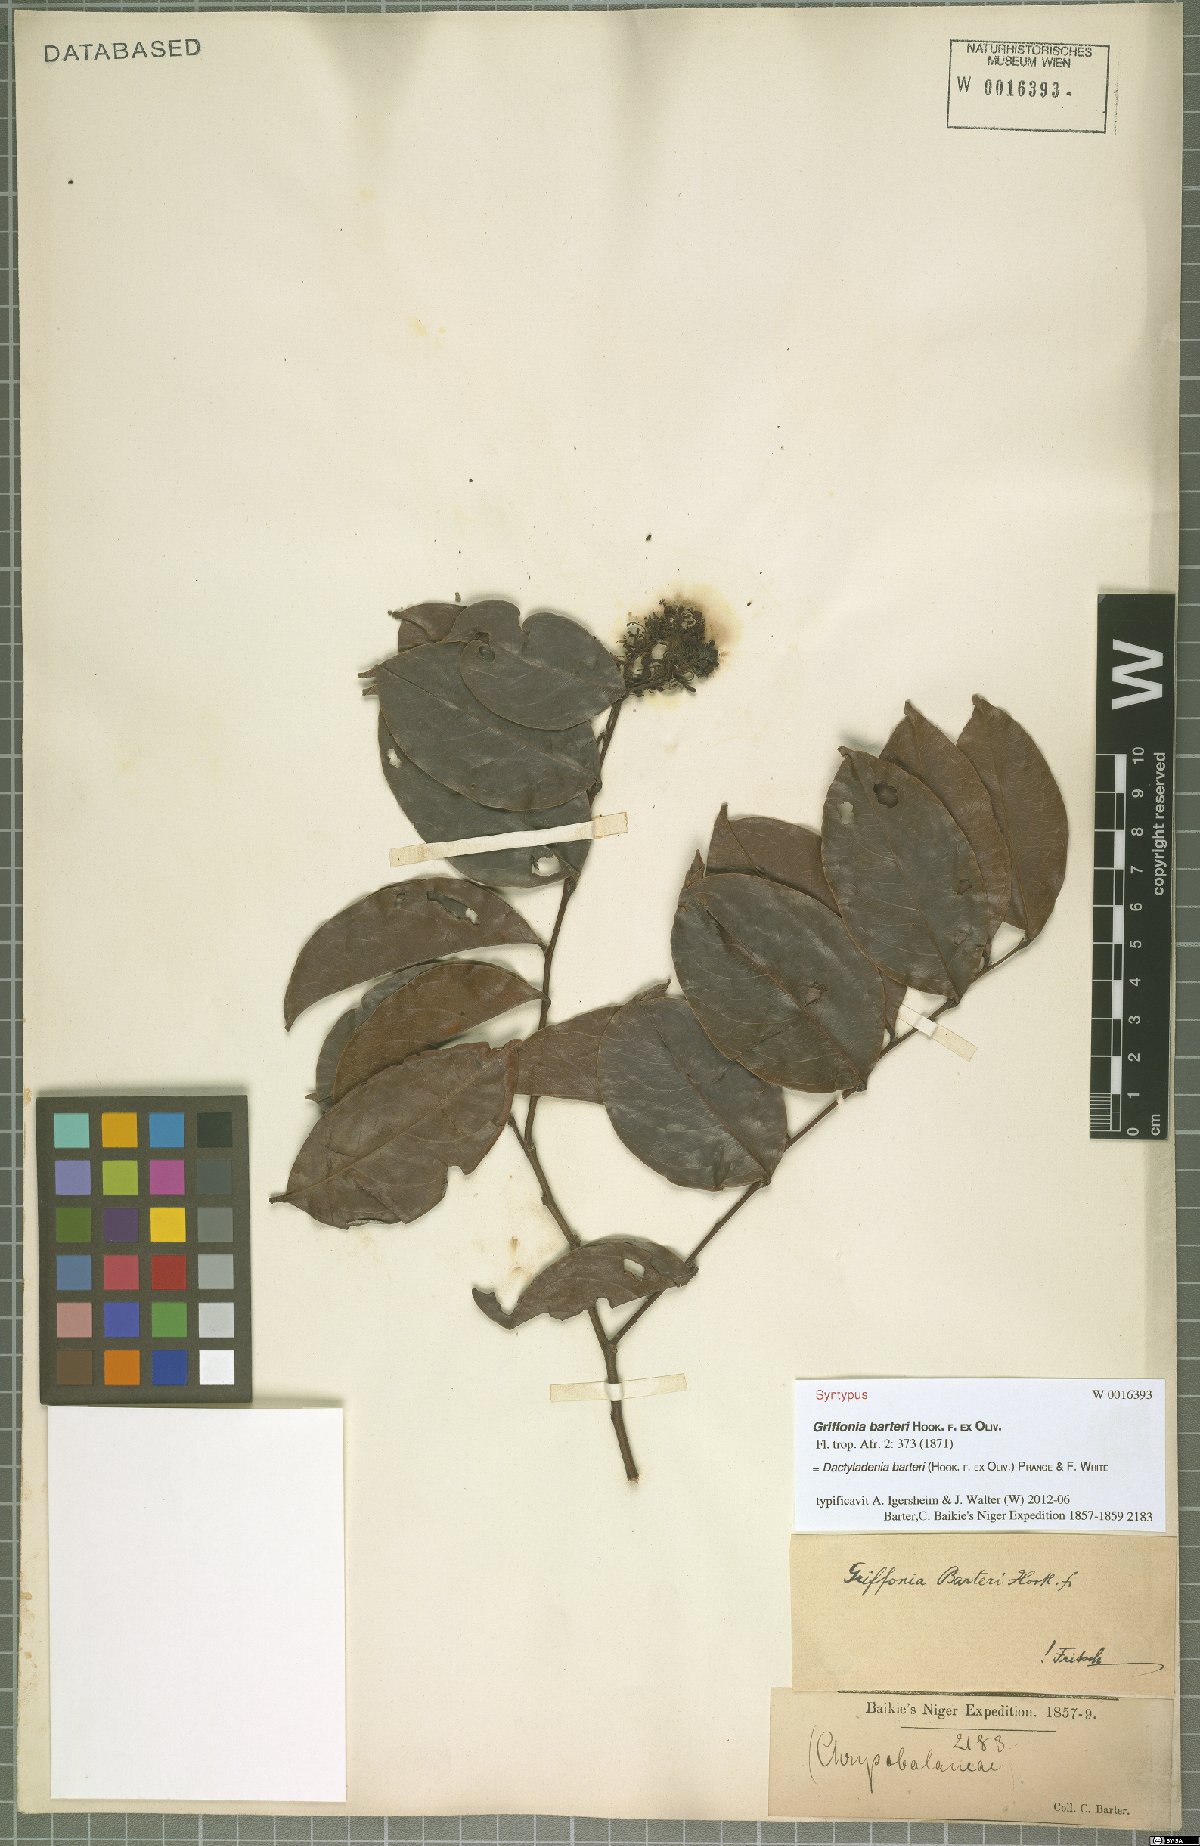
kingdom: Plantae
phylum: Tracheophyta
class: Magnoliopsida
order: Malpighiales
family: Chrysobalanaceae
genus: Dactyladenia
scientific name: Dactyladenia barteri
